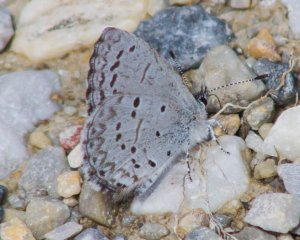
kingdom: Animalia
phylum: Arthropoda
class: Insecta
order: Lepidoptera
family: Lycaenidae
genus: Celastrina
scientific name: Celastrina ladon
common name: Spring Azure
